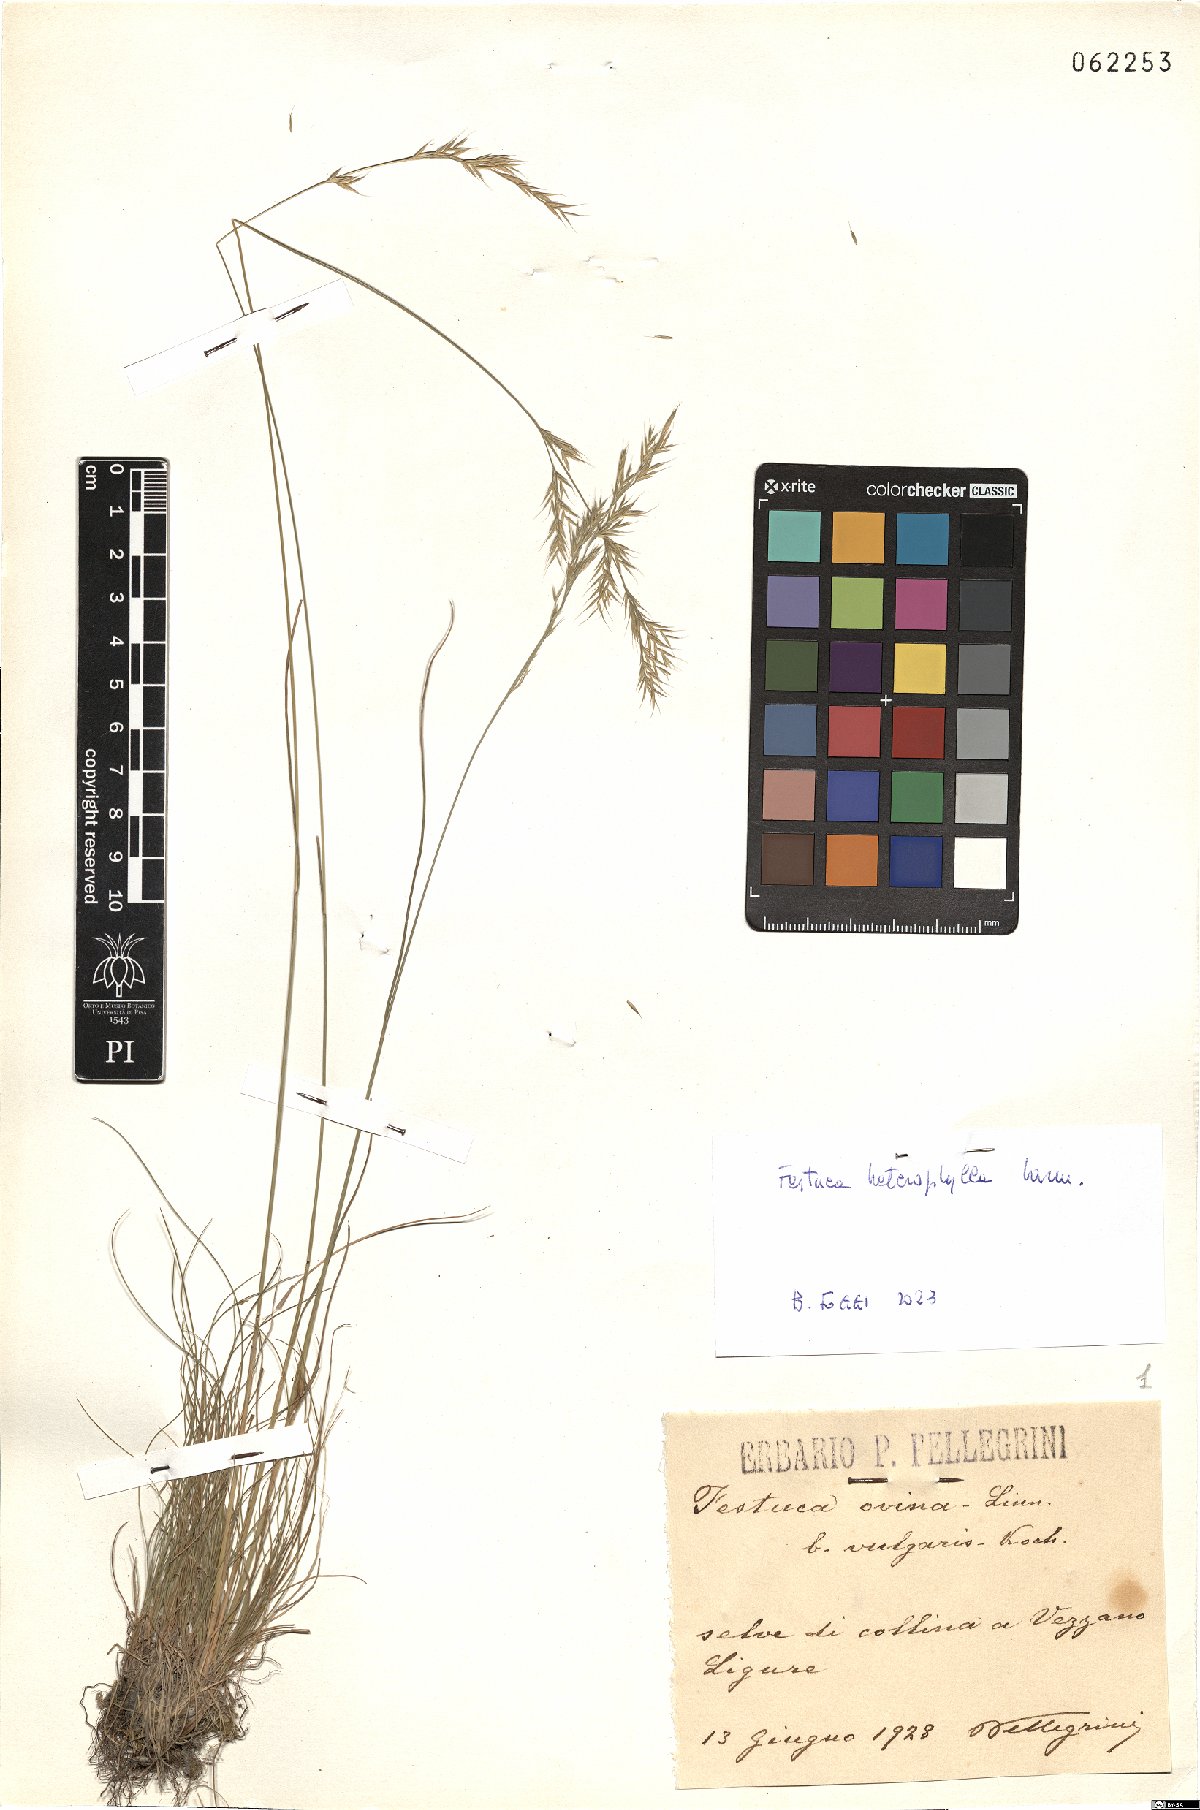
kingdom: Plantae
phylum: Tracheophyta
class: Liliopsida
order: Poales
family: Poaceae
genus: Festuca
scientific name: Festuca heterophylla
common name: Various-leaved fescue
